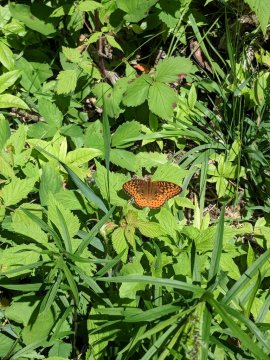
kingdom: Animalia
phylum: Arthropoda
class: Insecta
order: Lepidoptera
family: Nymphalidae
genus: Speyeria
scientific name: Speyeria atlantis
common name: Atlantis Fritillary
